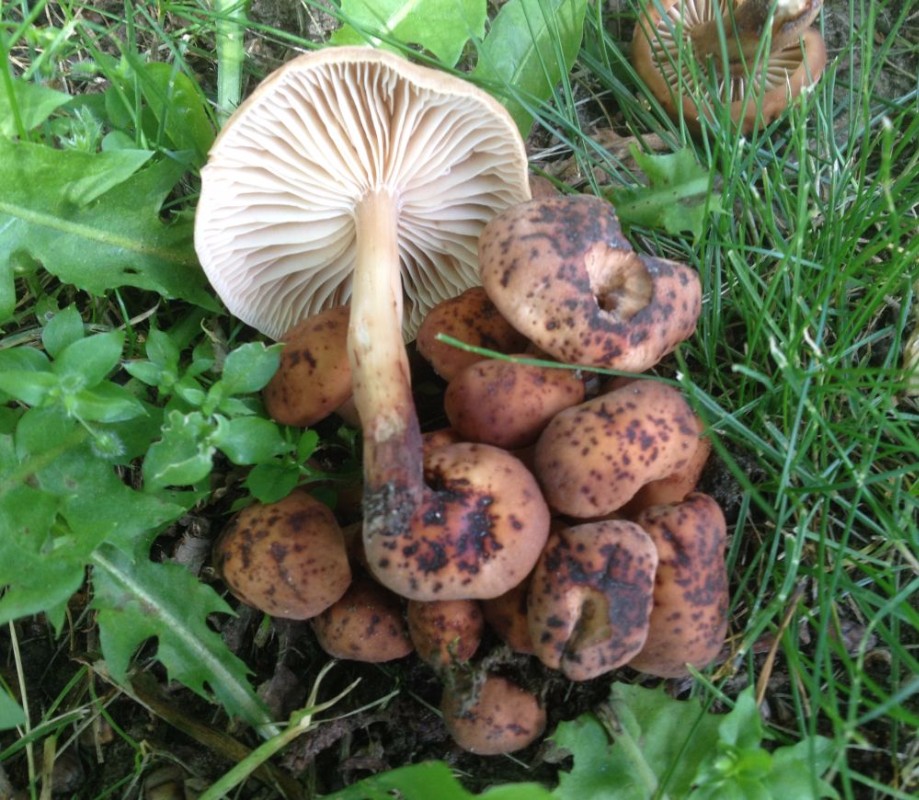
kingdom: Fungi
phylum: Basidiomycota
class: Agaricomycetes
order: Agaricales
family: Omphalotaceae
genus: Gymnopus
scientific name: Gymnopus fusipes
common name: tenstokket fladhat
